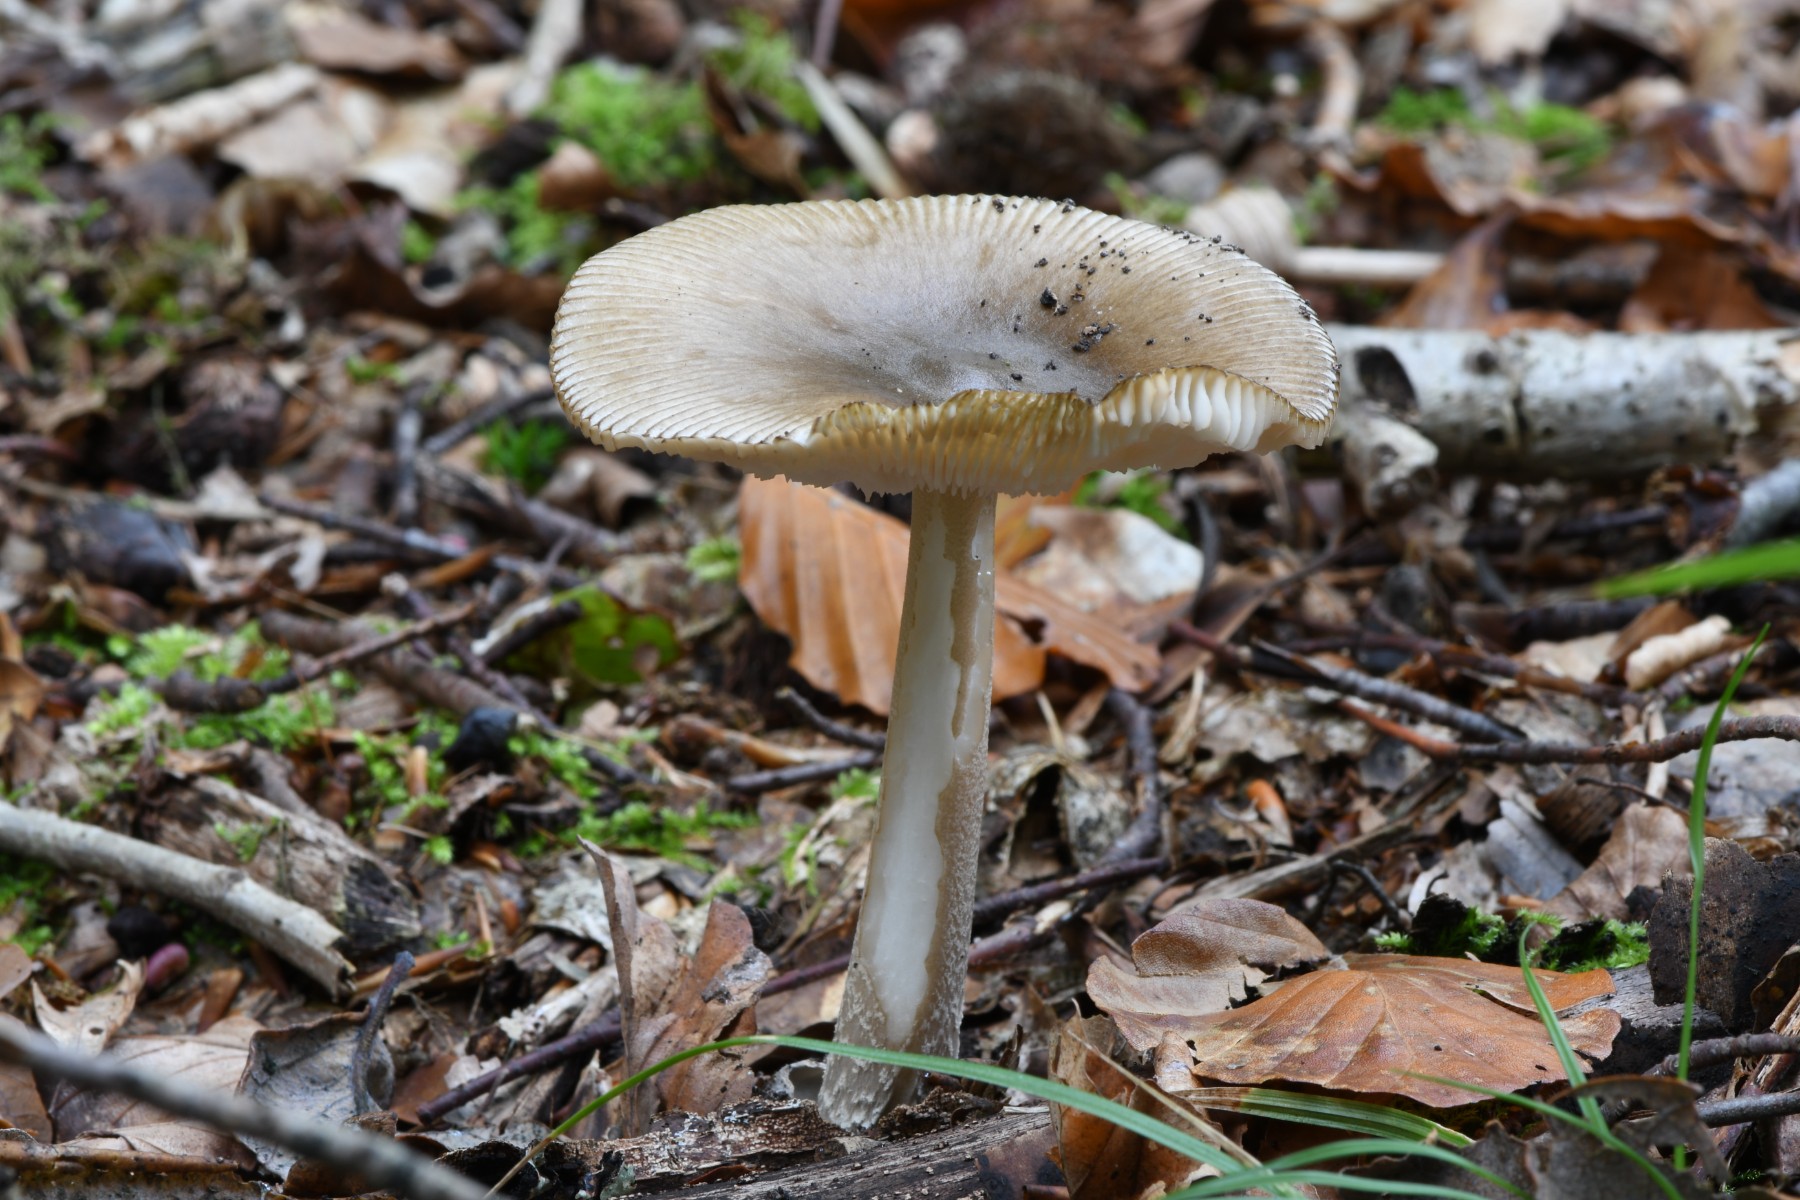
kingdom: Fungi
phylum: Basidiomycota
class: Agaricomycetes
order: Agaricales
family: Amanitaceae
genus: Amanita
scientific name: Amanita submembranacea
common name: gråspættet kam-fluesvamp
